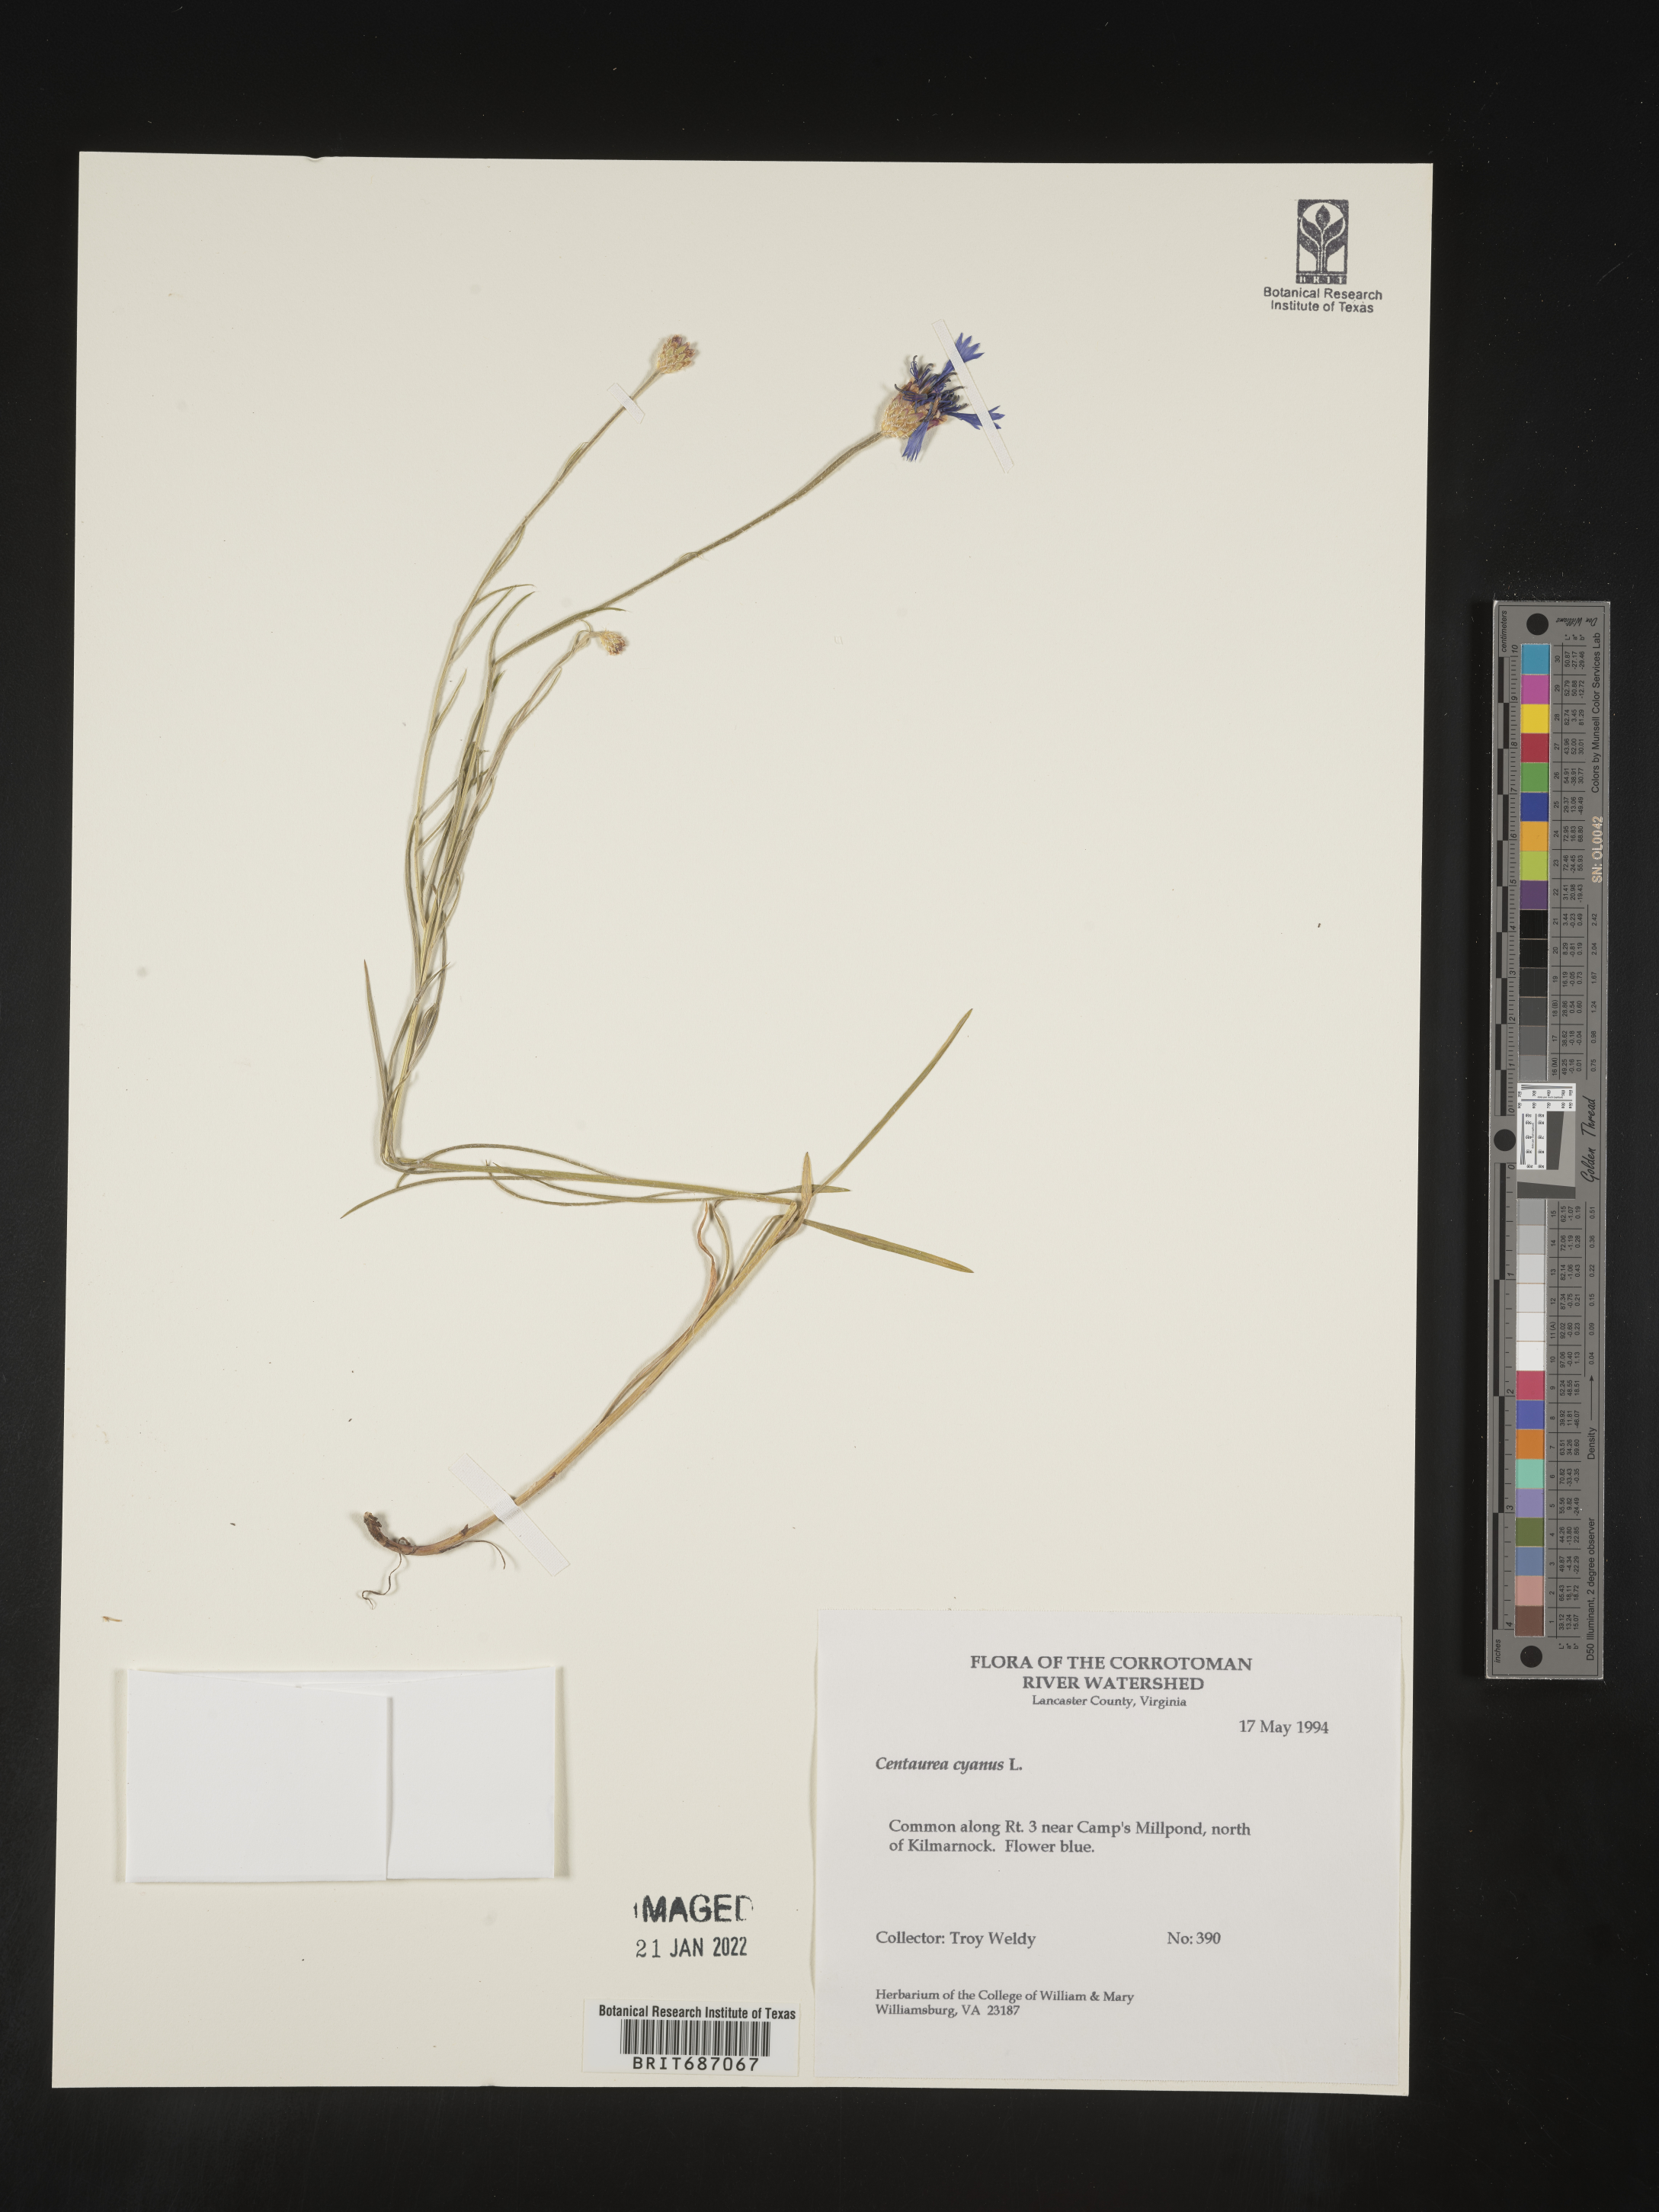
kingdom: Plantae
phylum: Tracheophyta
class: Magnoliopsida
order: Asterales
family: Asteraceae
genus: Centaurea
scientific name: Centaurea cyanus
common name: Cornflower
